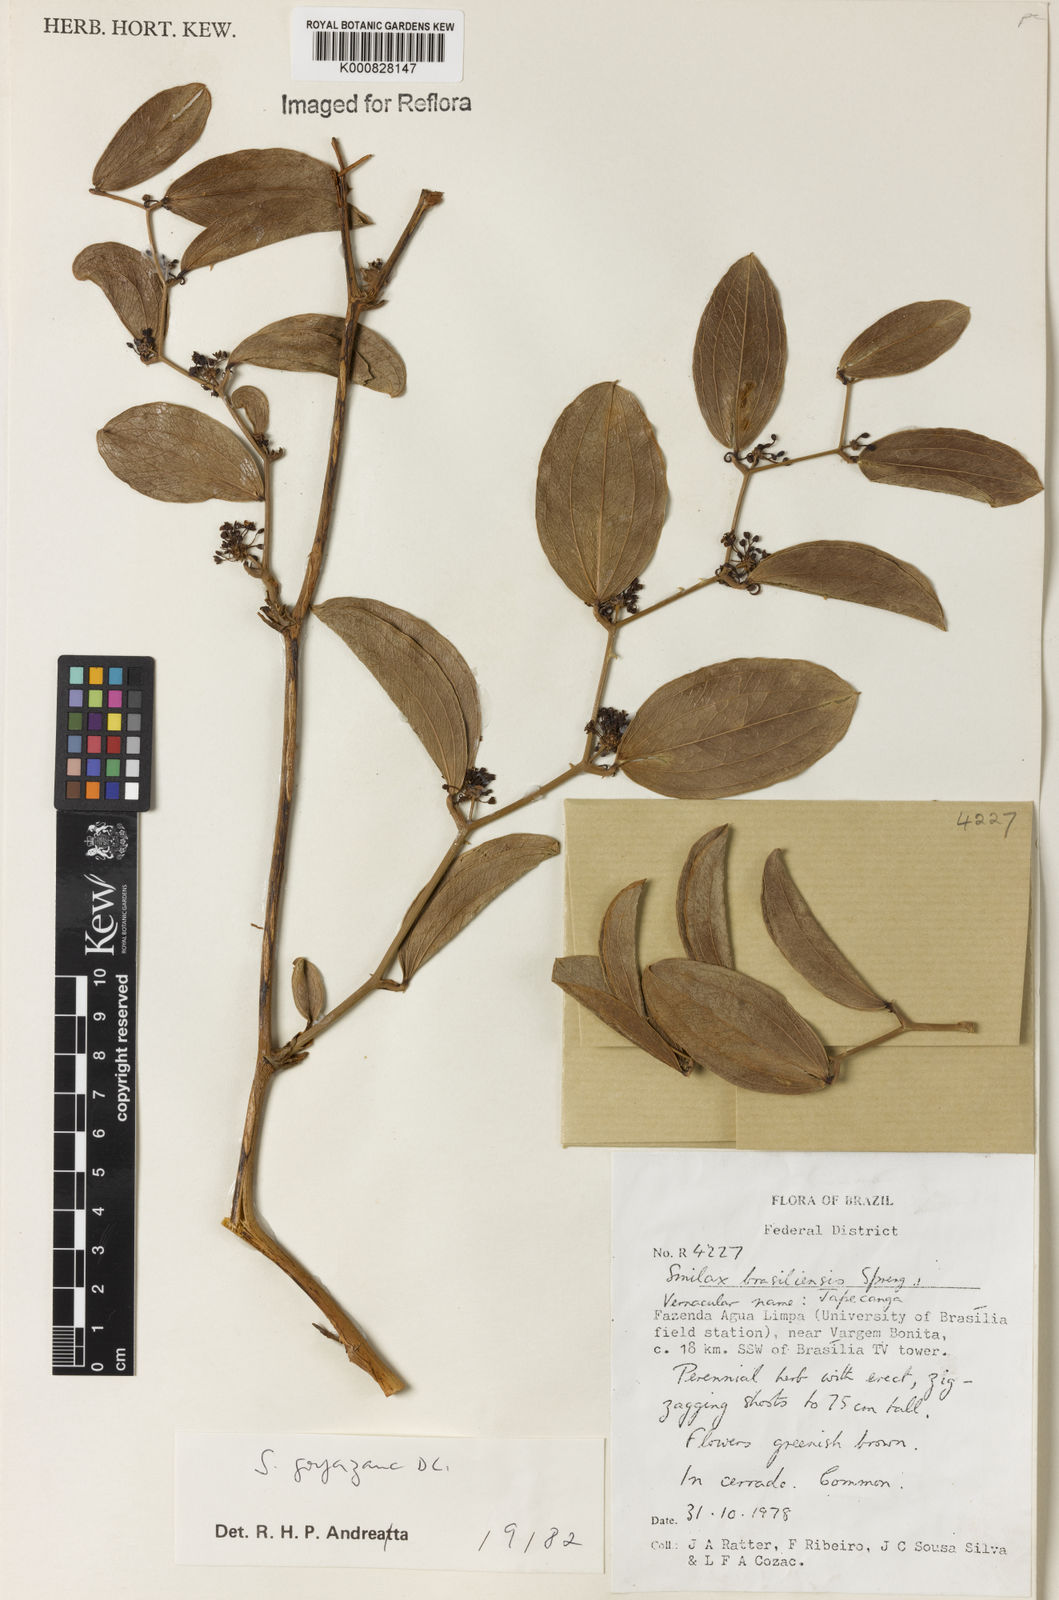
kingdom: Plantae
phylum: Tracheophyta
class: Liliopsida
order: Liliales
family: Smilacaceae
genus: Smilax
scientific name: Smilax goyazana
